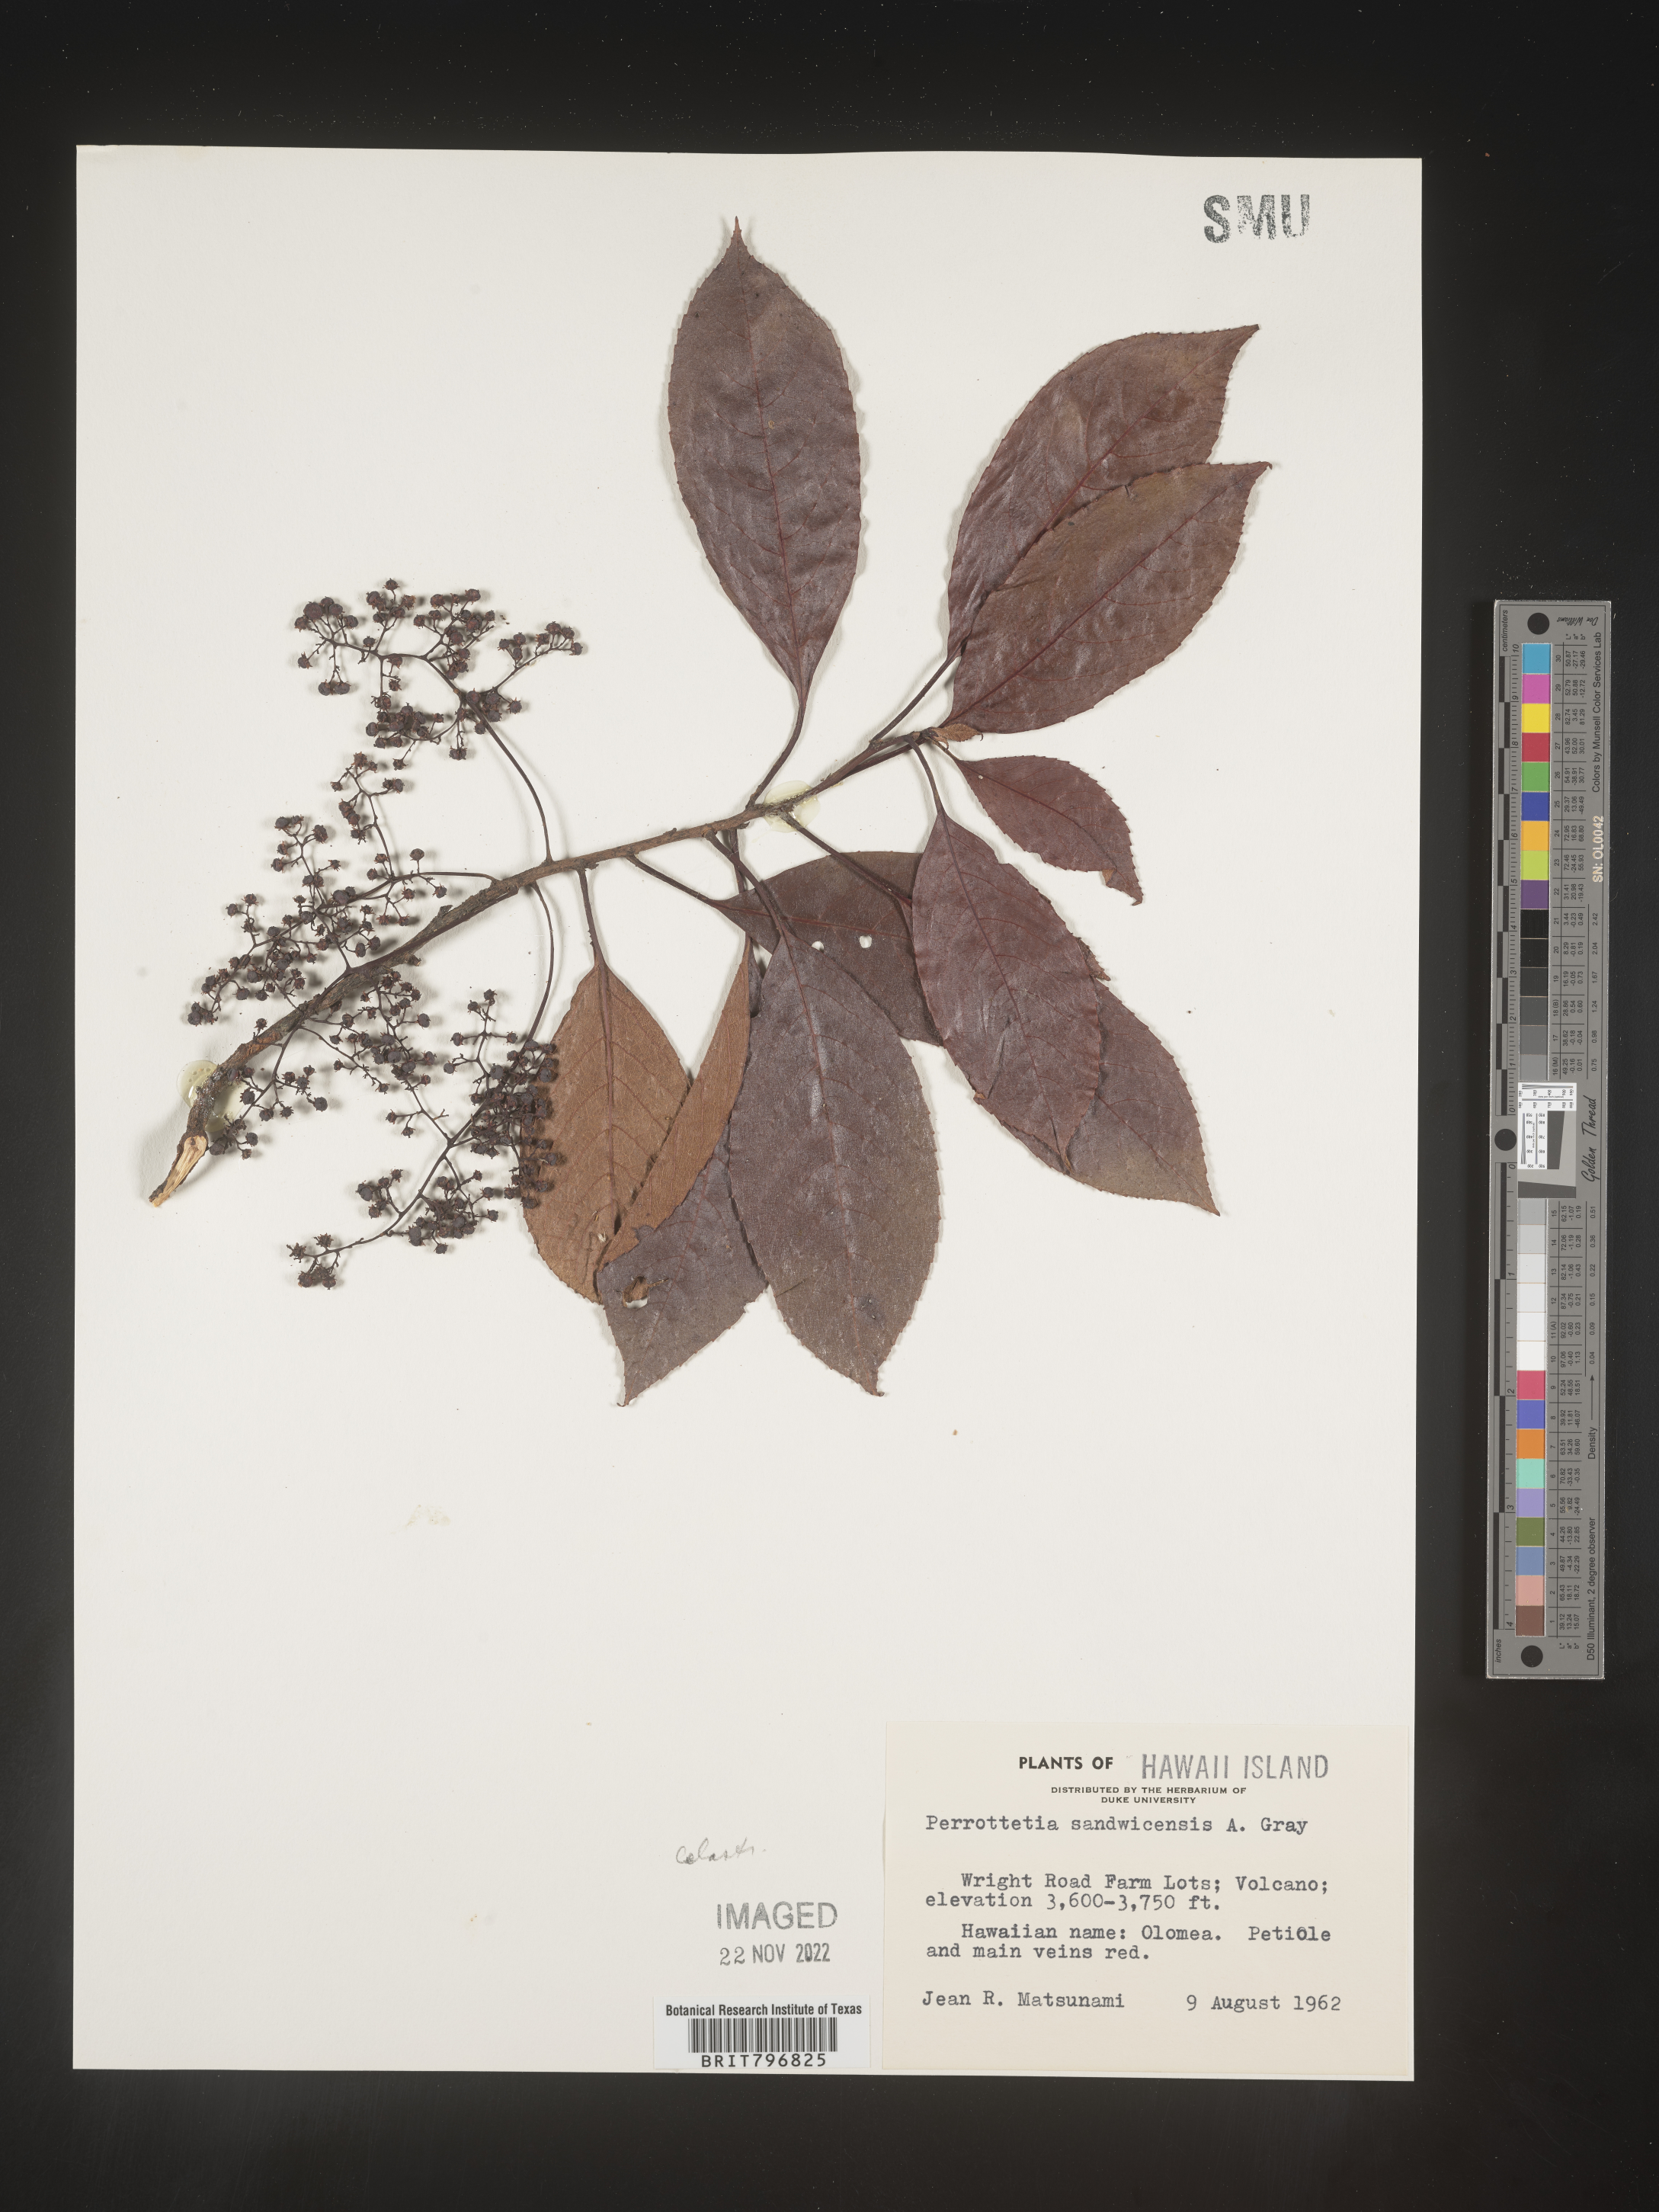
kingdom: Plantae
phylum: Tracheophyta
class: Magnoliopsida
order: Huerteales
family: Dipentodontaceae
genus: Perrottetia
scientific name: Perrottetia sandwicensis
